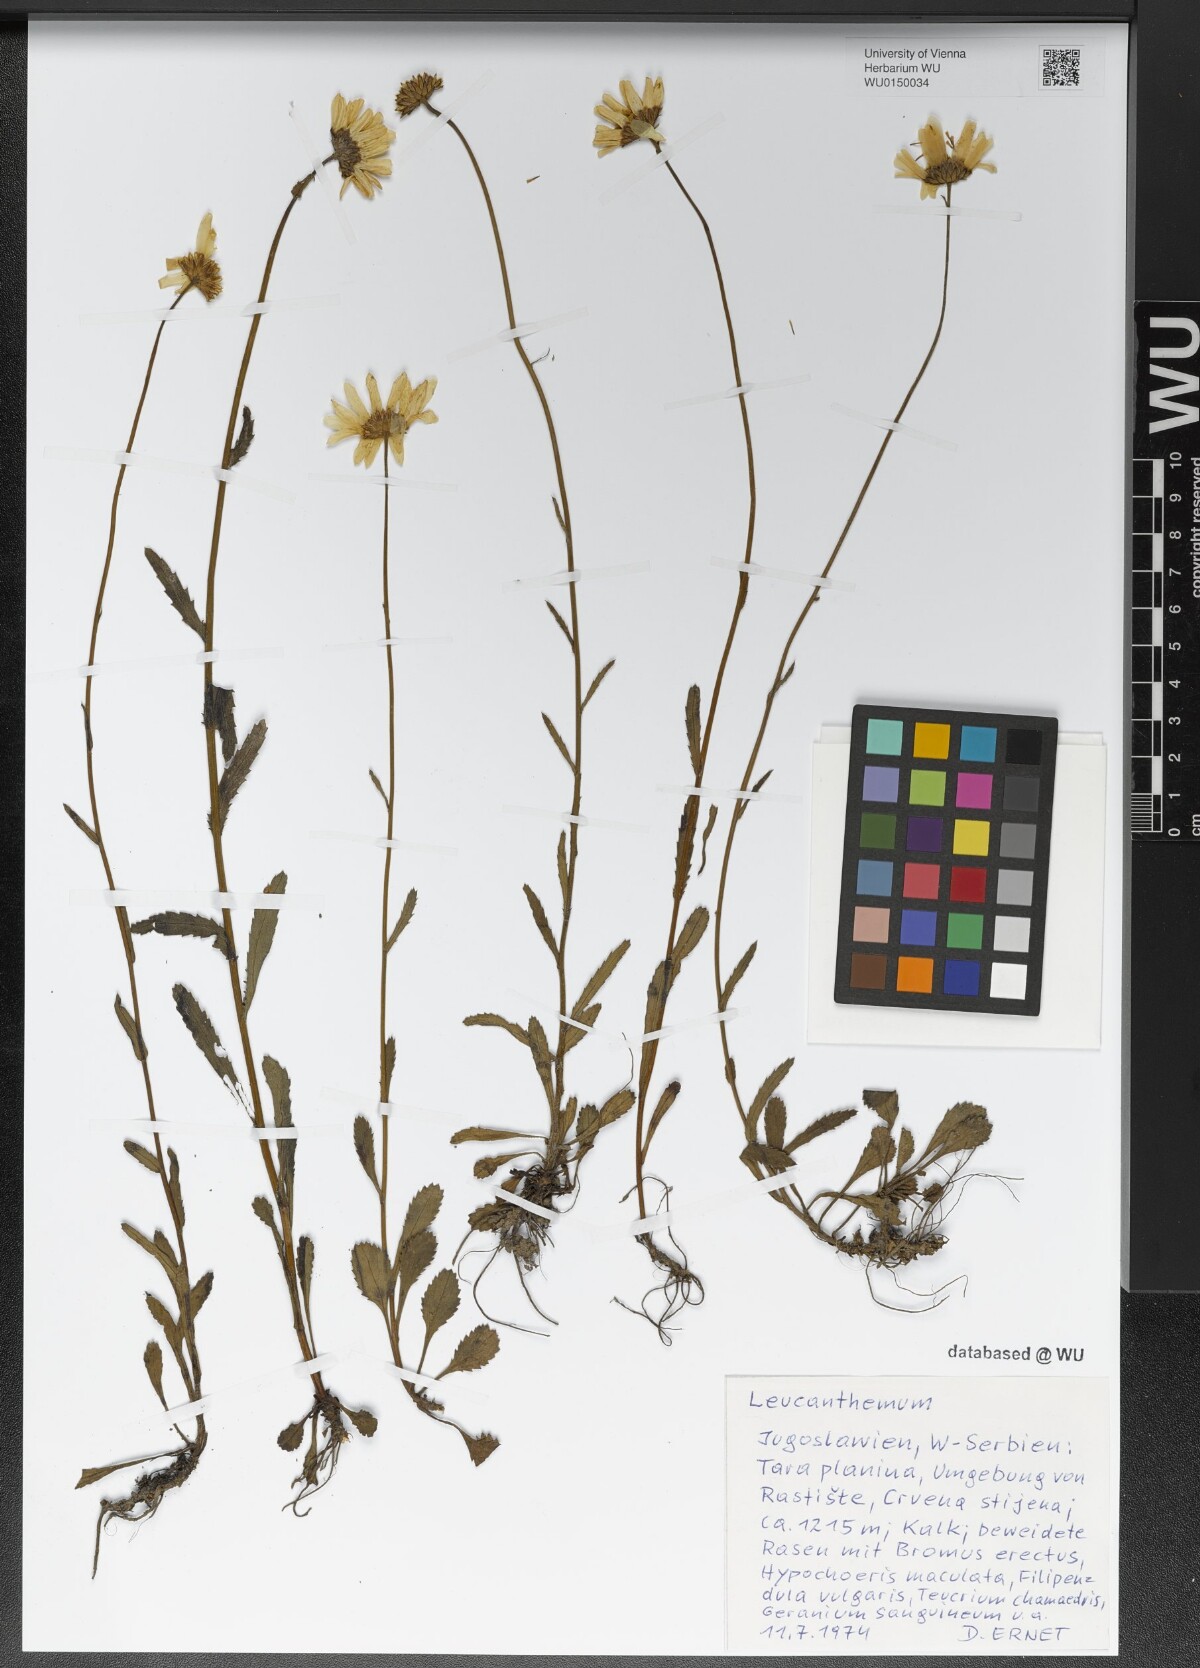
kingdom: Plantae
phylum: Tracheophyta
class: Magnoliopsida
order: Asterales
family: Asteraceae
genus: Leucanthemum
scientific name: Leucanthemum
